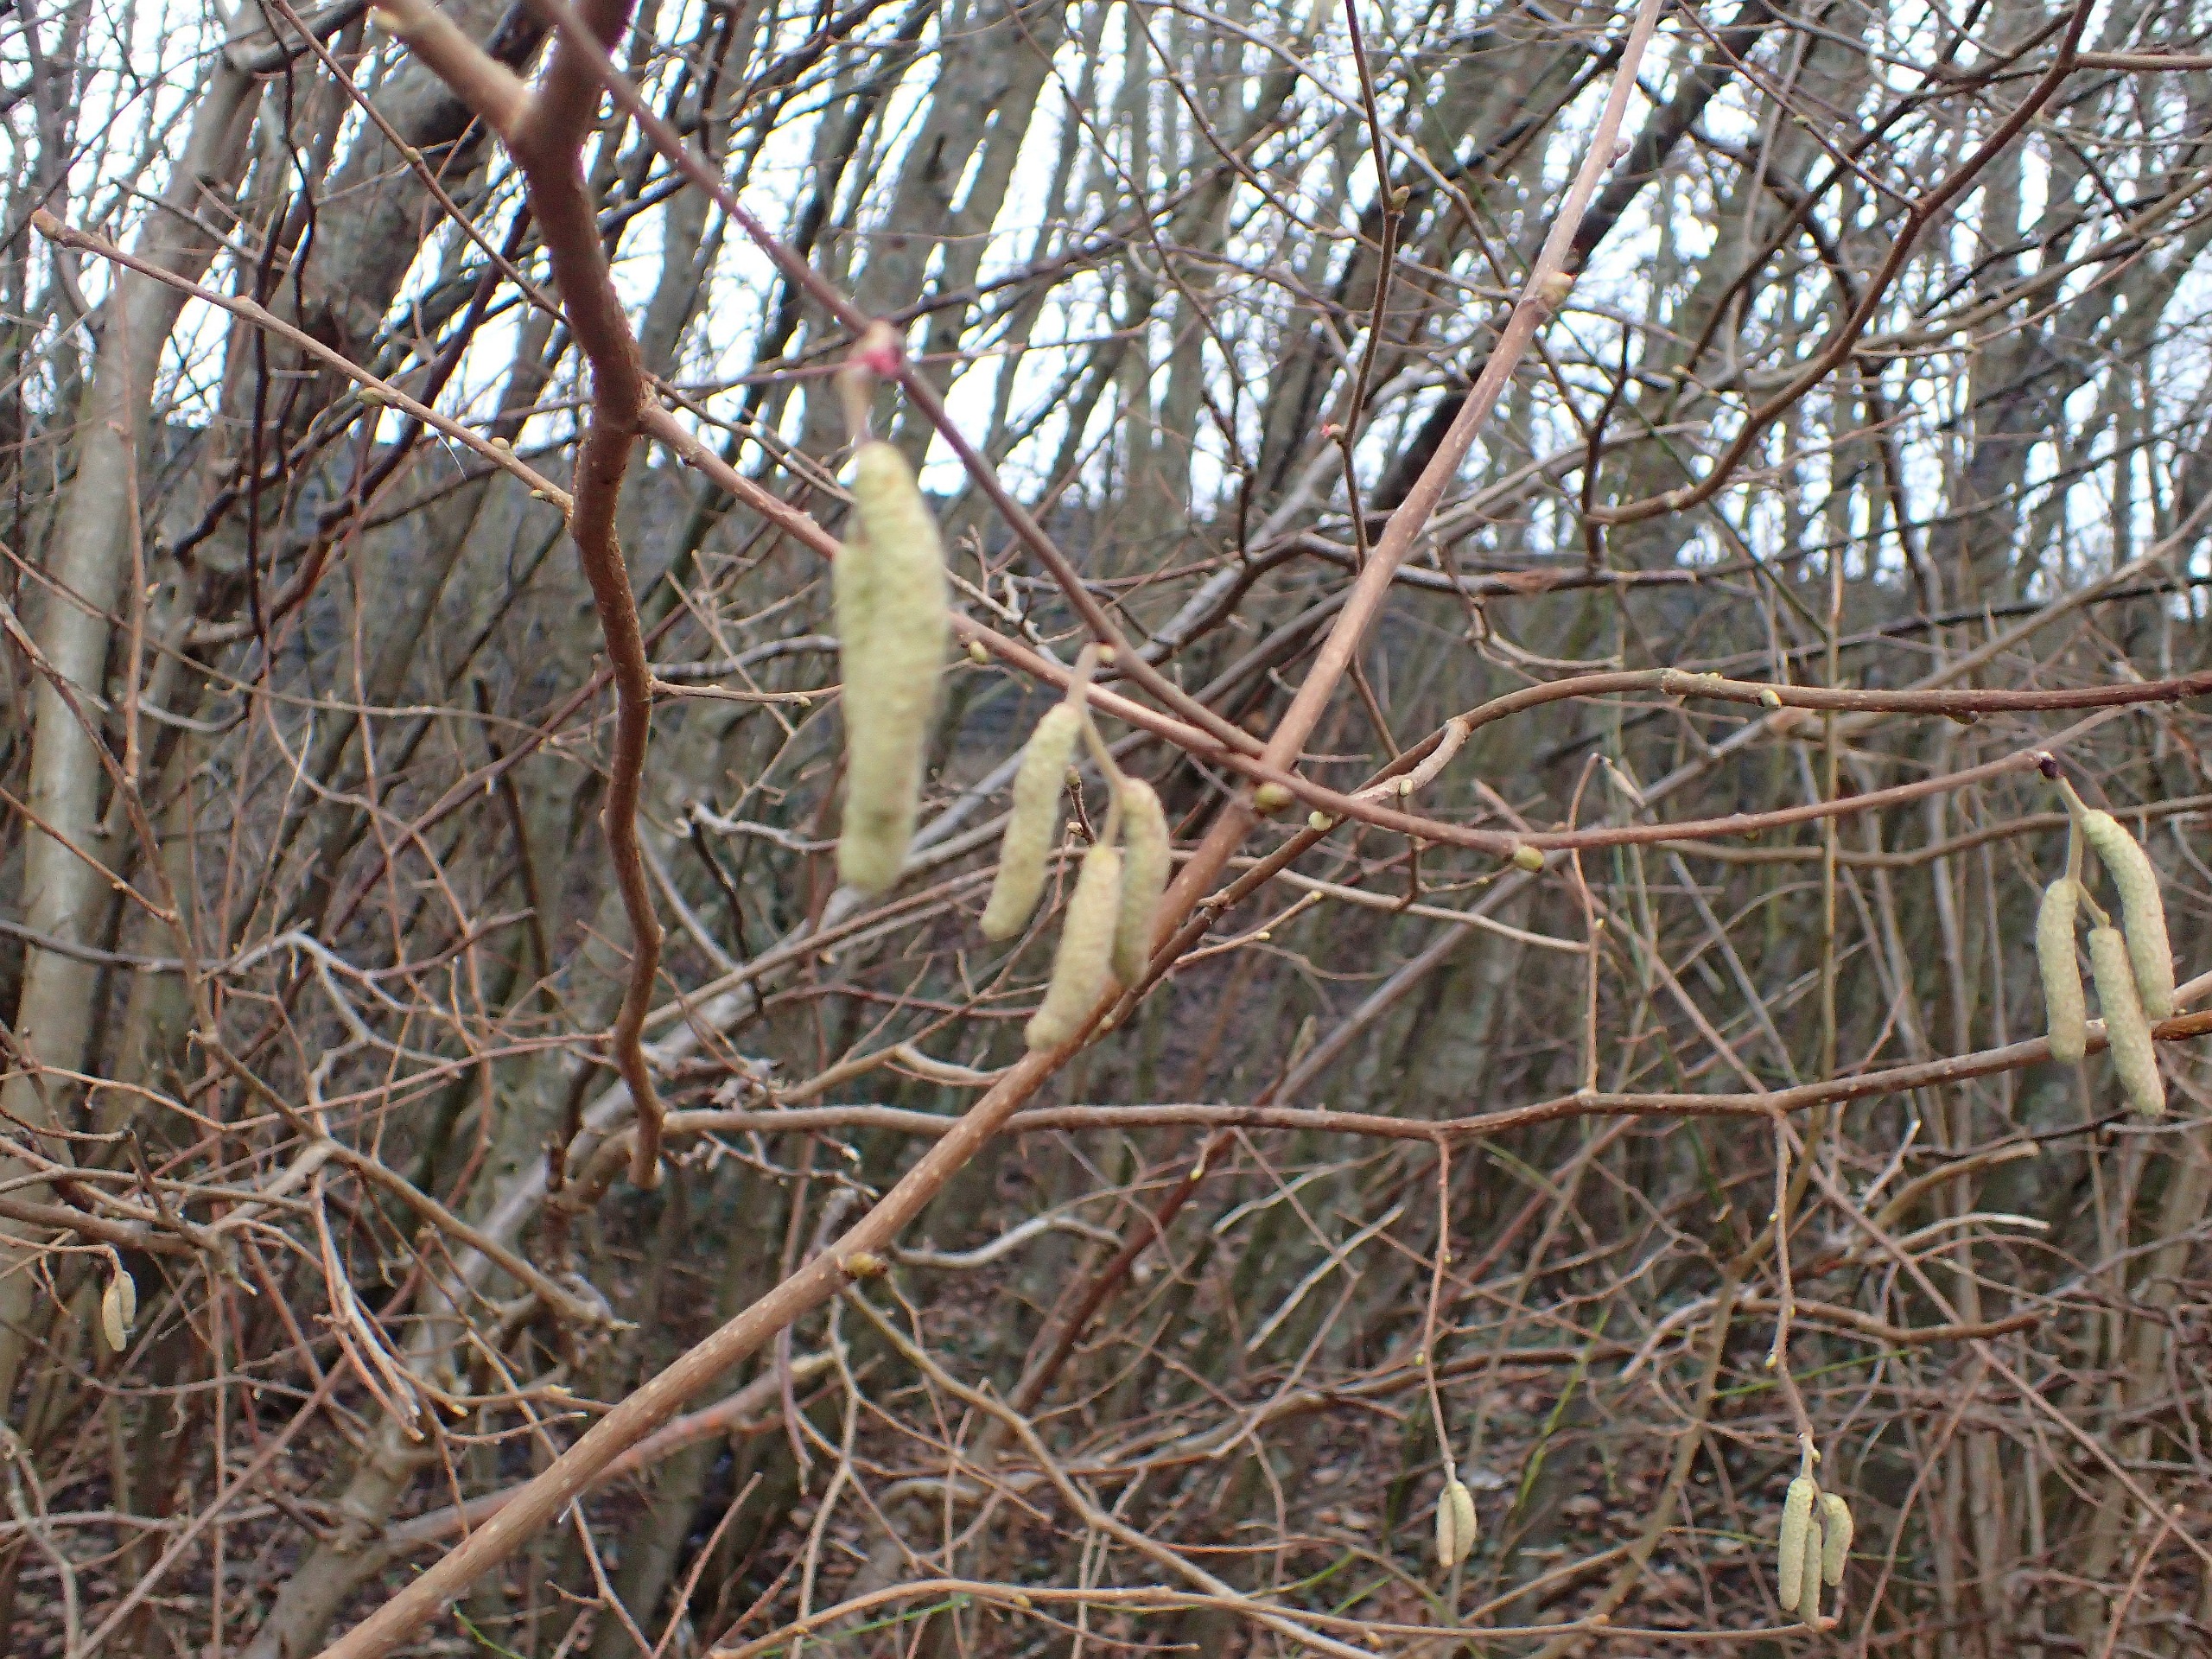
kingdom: Plantae
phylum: Tracheophyta
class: Magnoliopsida
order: Fagales
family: Betulaceae
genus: Corylus
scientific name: Corylus avellana
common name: Hassel
